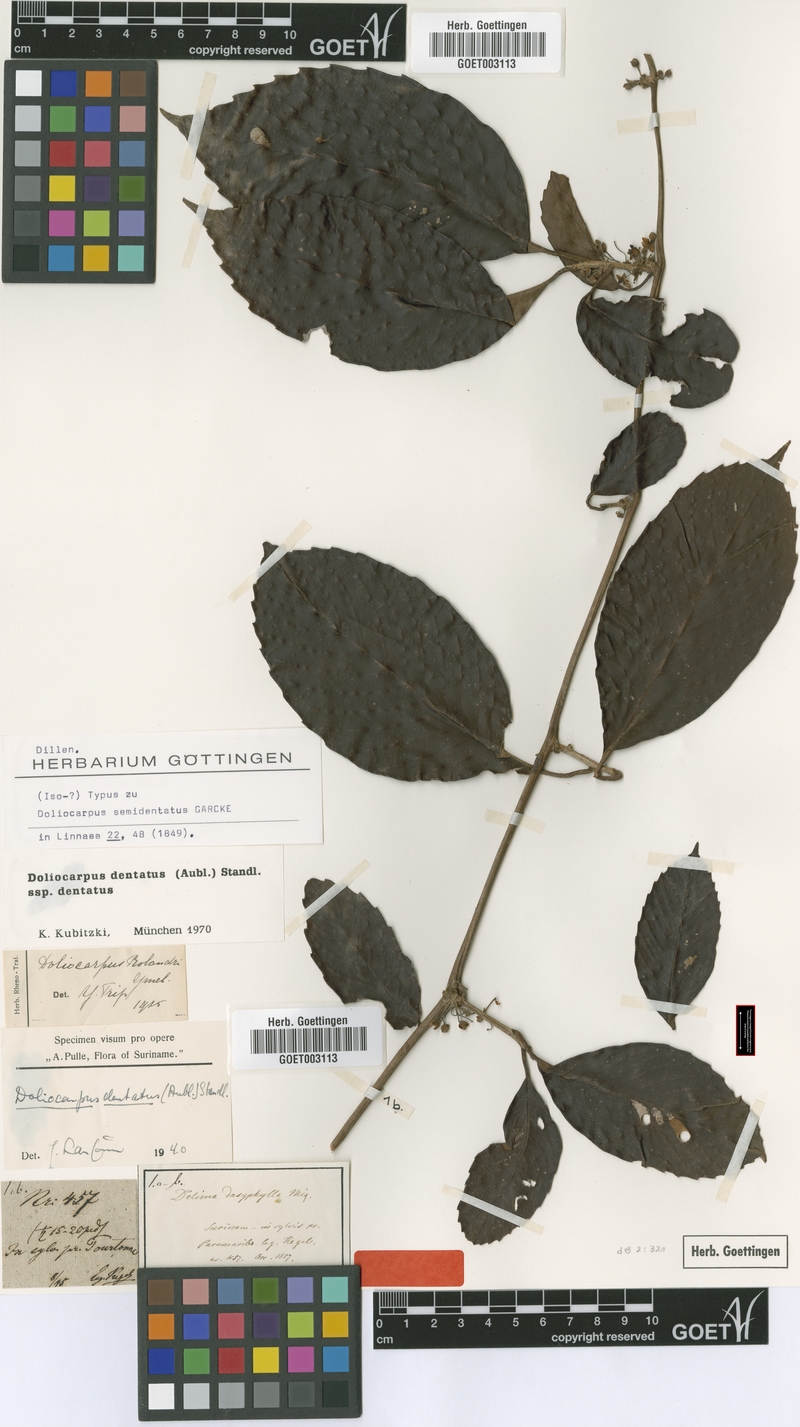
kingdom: Plantae
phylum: Tracheophyta
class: Magnoliopsida
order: Dilleniales
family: Dilleniaceae
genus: Doliocarpus
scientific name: Doliocarpus dentatus
